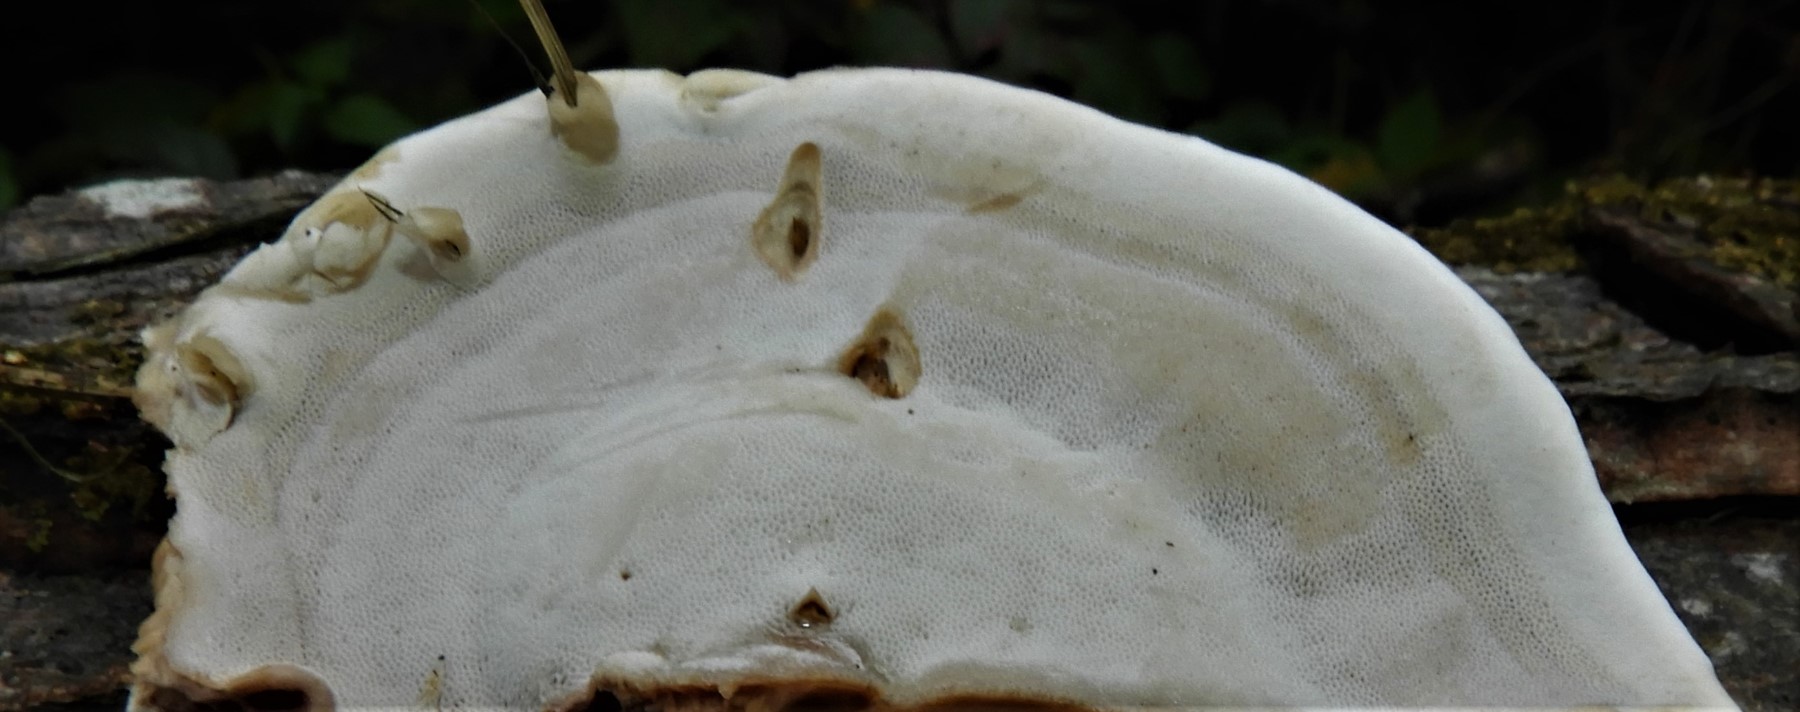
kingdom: Fungi
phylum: Basidiomycota
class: Agaricomycetes
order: Polyporales
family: Phanerochaetaceae
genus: Bjerkandera
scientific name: Bjerkandera adusta
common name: sveden sodporesvamp
